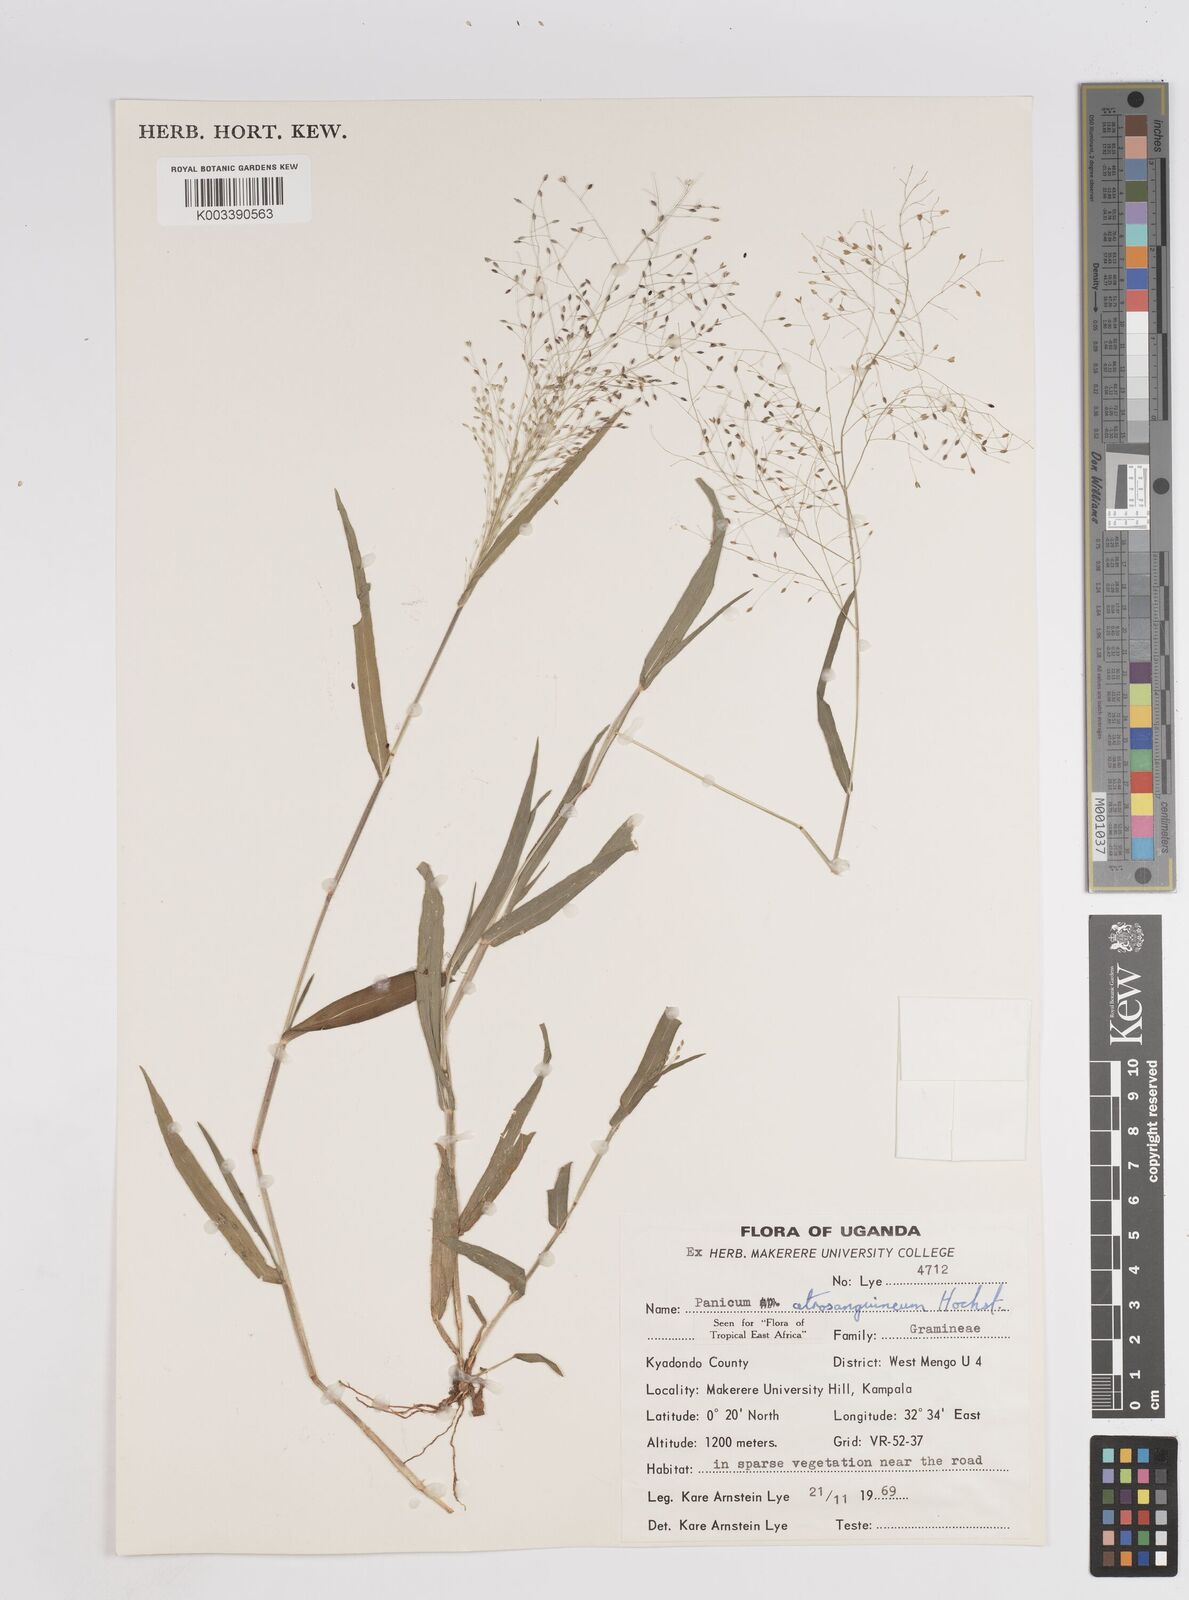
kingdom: Plantae
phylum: Tracheophyta
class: Liliopsida
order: Poales
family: Poaceae
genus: Panicum
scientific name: Panicum atrosanguineum
